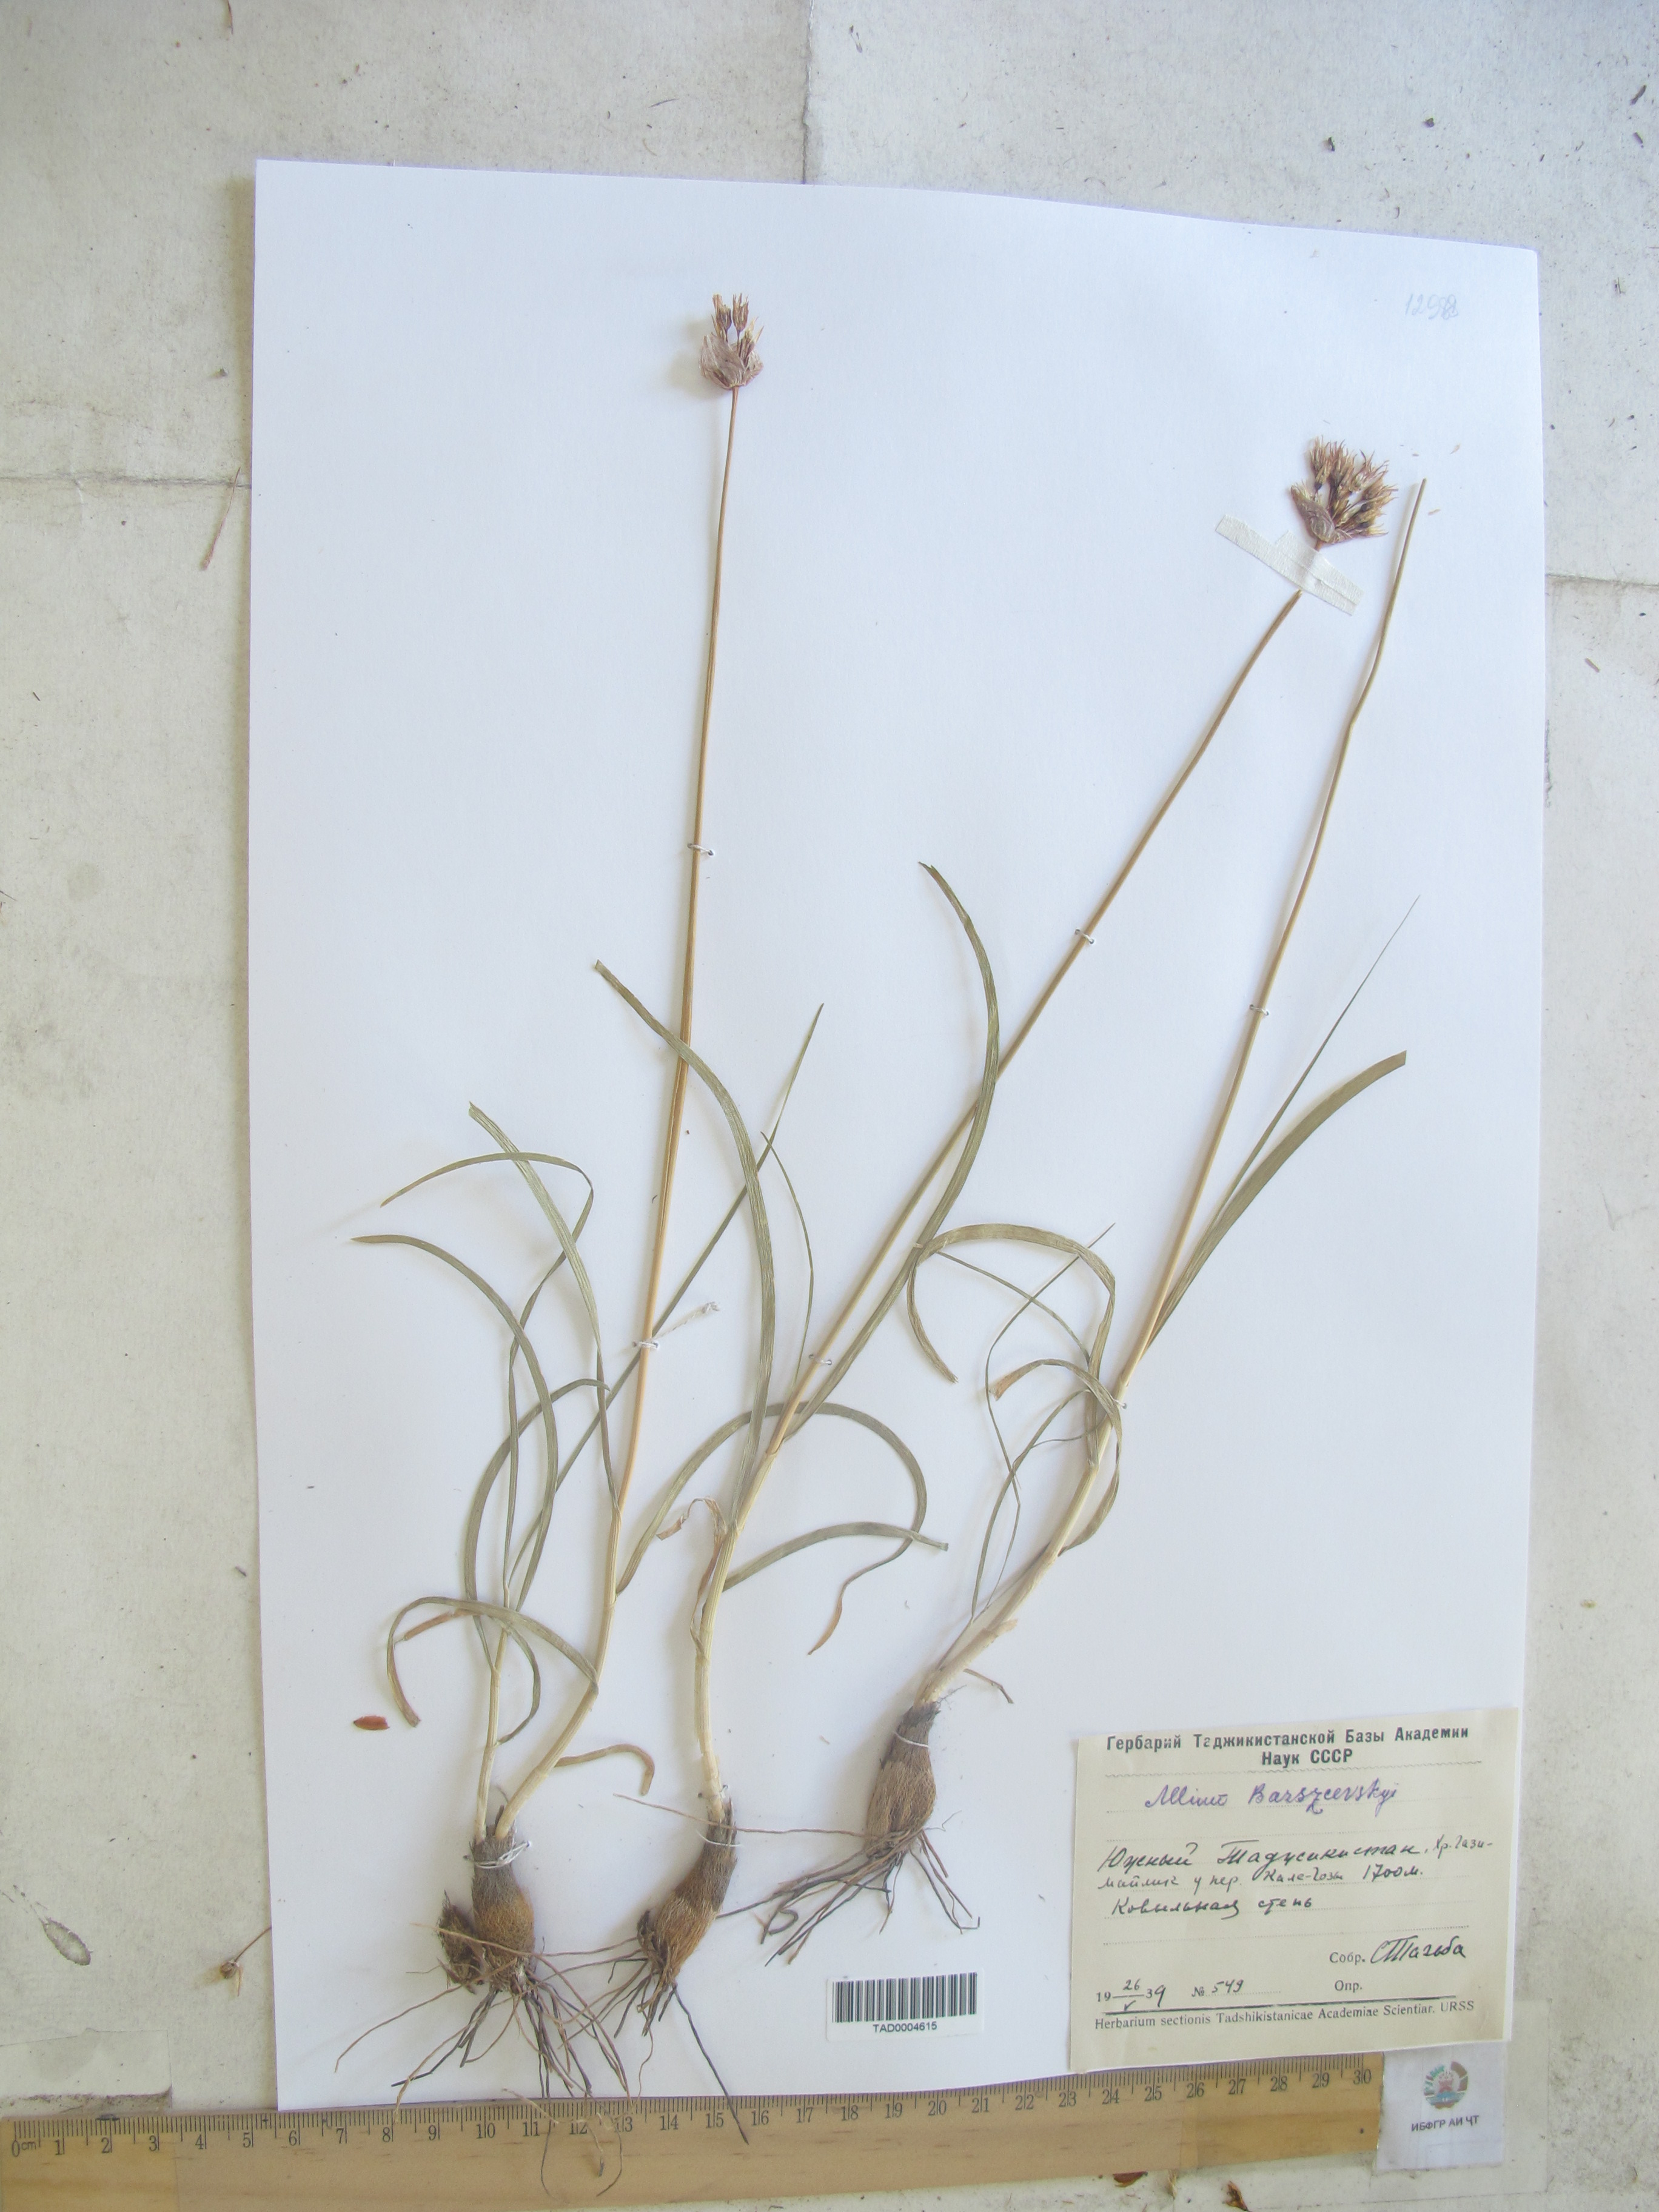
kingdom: Plantae
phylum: Tracheophyta
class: Liliopsida
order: Asparagales
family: Amaryllidaceae
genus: Allium
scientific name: Allium barsczewskii
